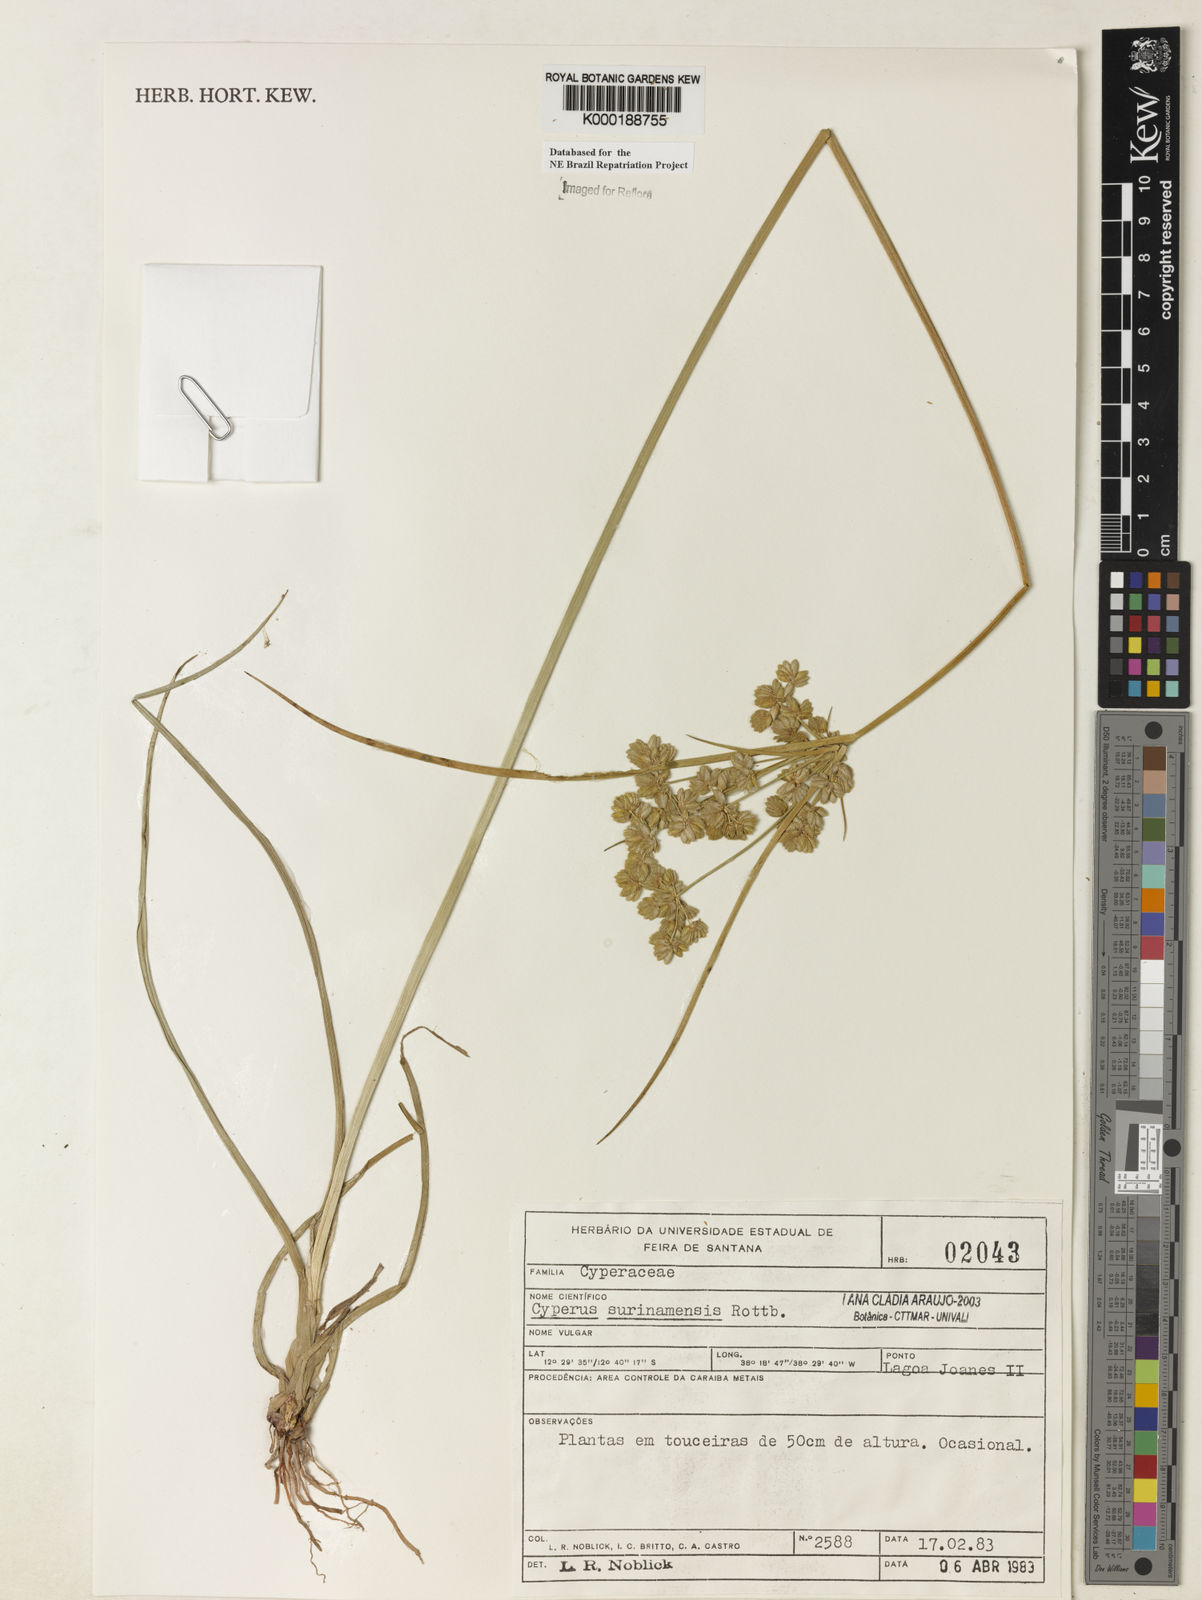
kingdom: Plantae
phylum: Tracheophyta
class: Liliopsida
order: Poales
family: Cyperaceae
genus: Cyperus
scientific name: Cyperus surinamensis
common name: Tropical flat sedge
